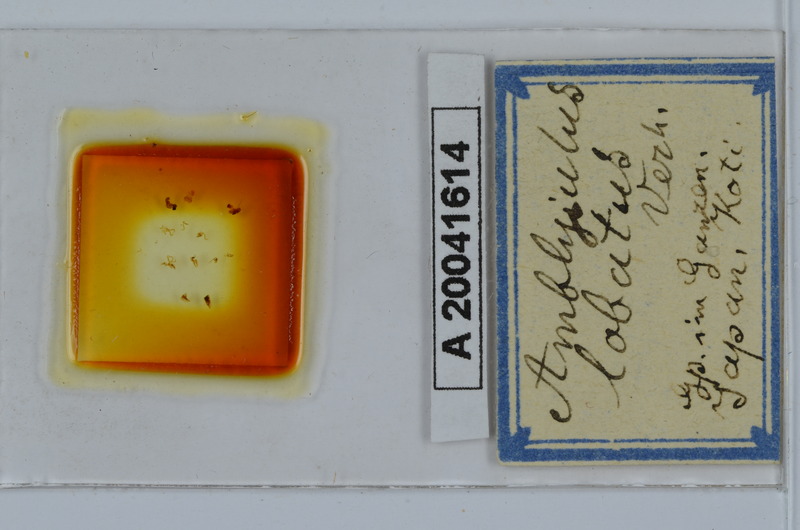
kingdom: Animalia
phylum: Arthropoda
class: Diplopoda
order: Julida
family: Julidae
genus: Japanioiulus
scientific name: Japanioiulus lobatus
